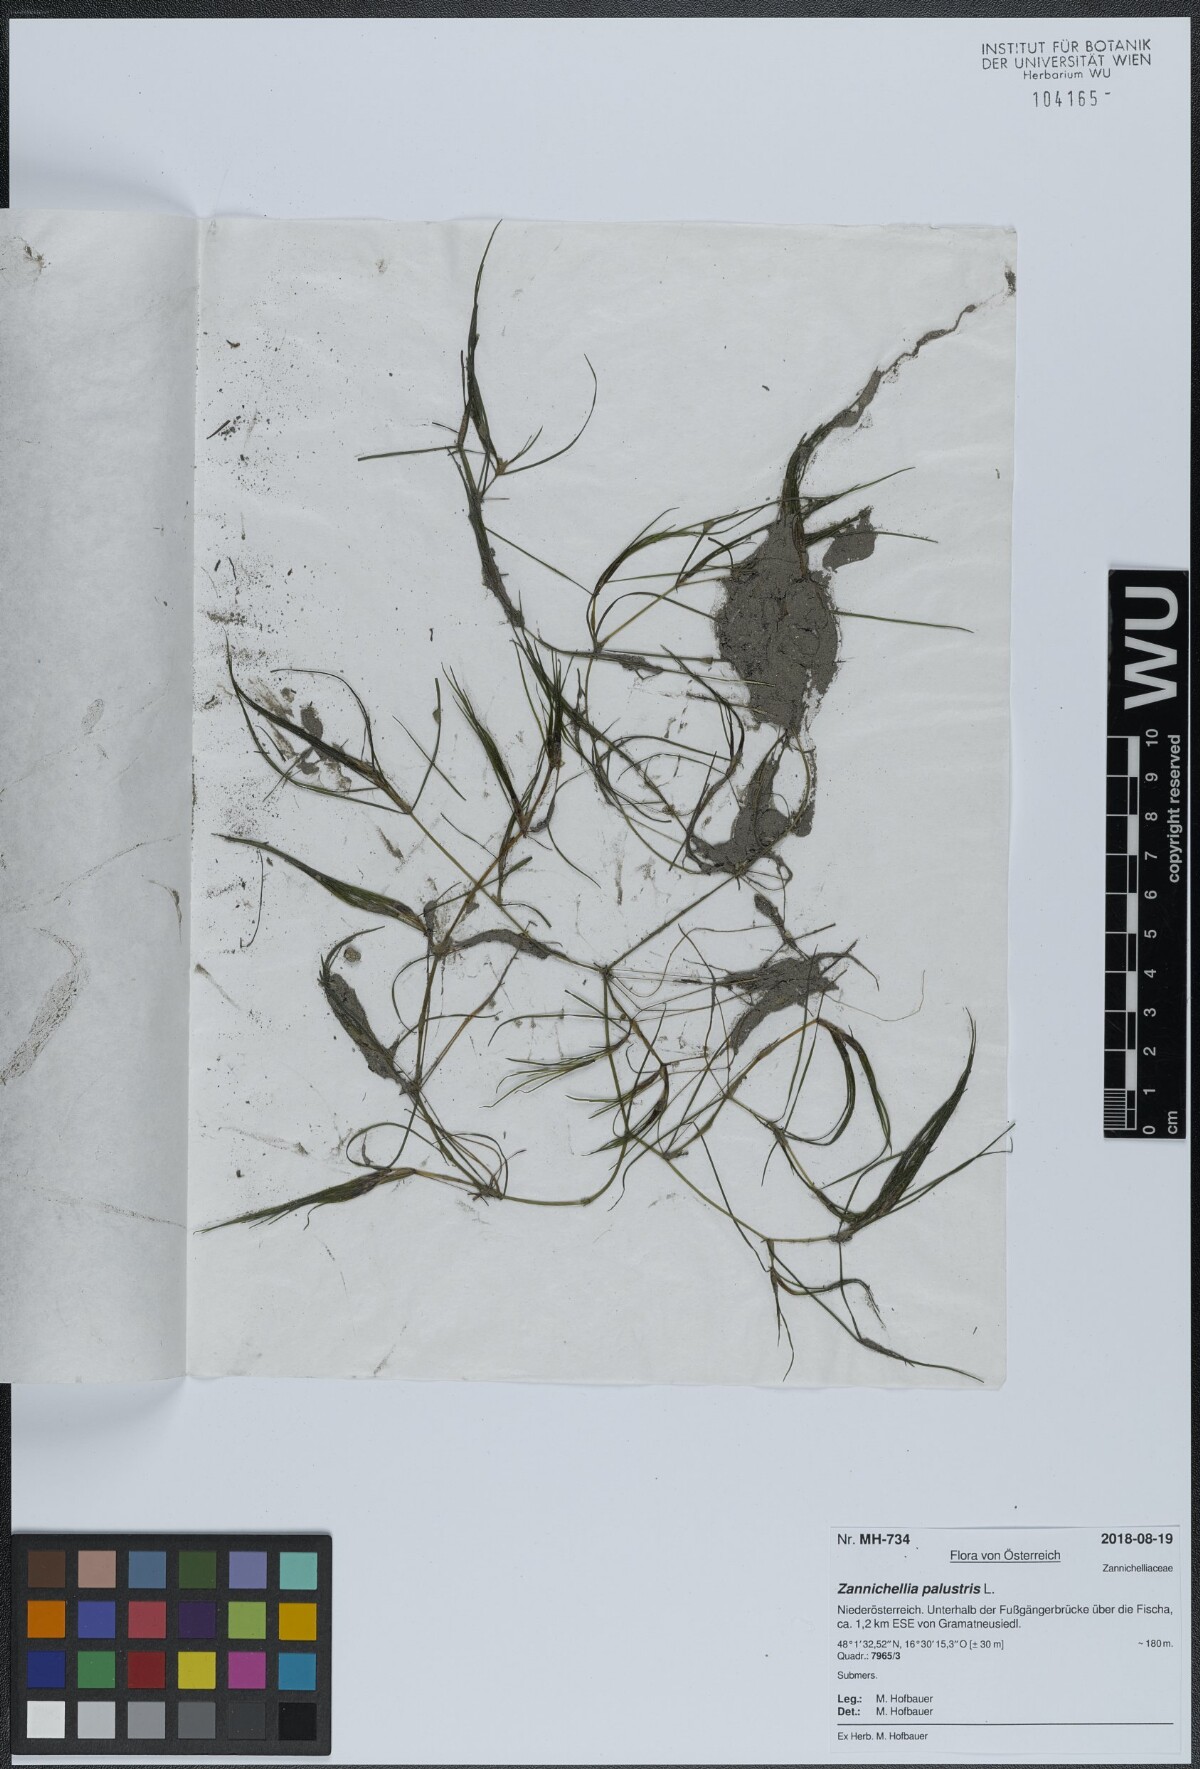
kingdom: Plantae
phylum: Tracheophyta
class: Liliopsida
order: Alismatales
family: Potamogetonaceae
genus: Zannichellia
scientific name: Zannichellia palustris
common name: Horned pondweed
